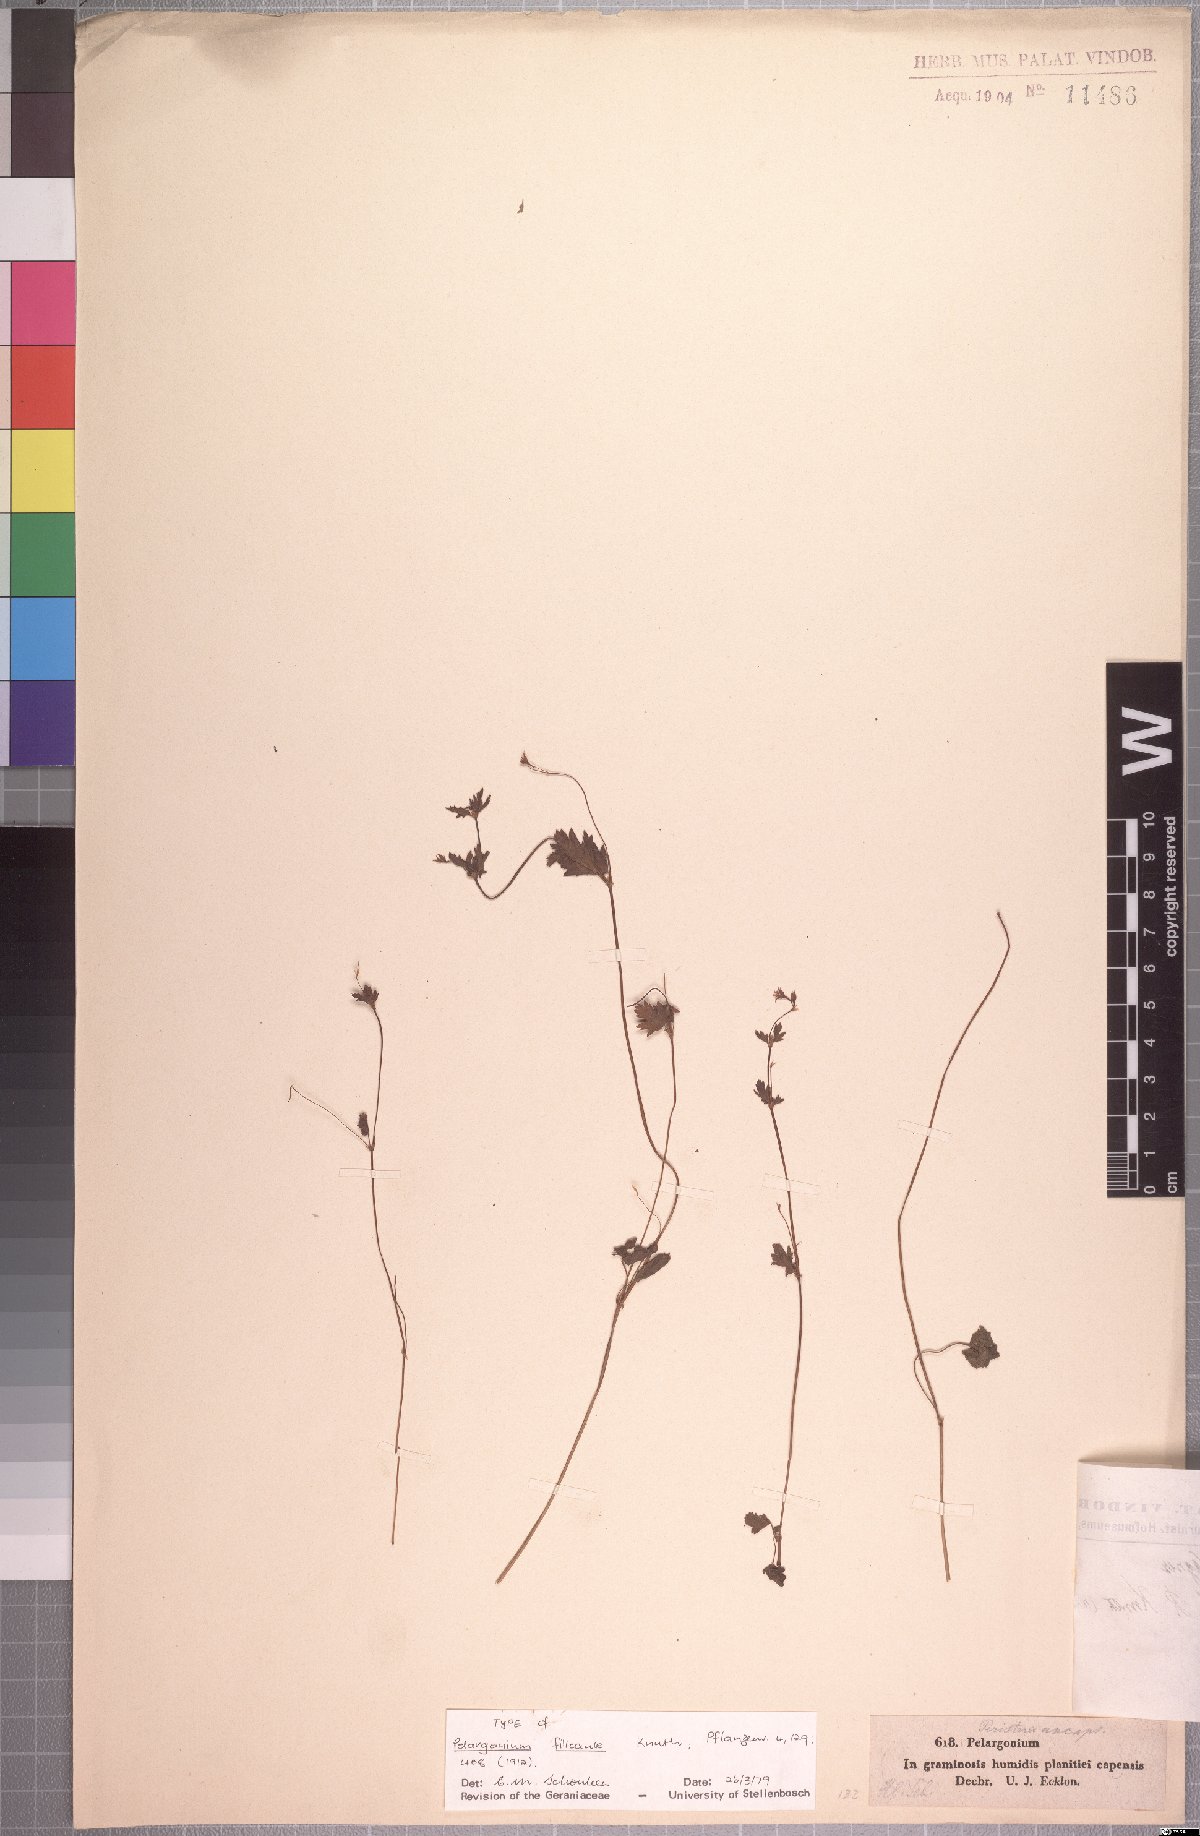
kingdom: Plantae
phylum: Tracheophyta
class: Magnoliopsida
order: Geraniales
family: Geraniaceae
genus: Pelargonium
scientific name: Pelargonium grossularioides
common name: Gooseberry geranium
